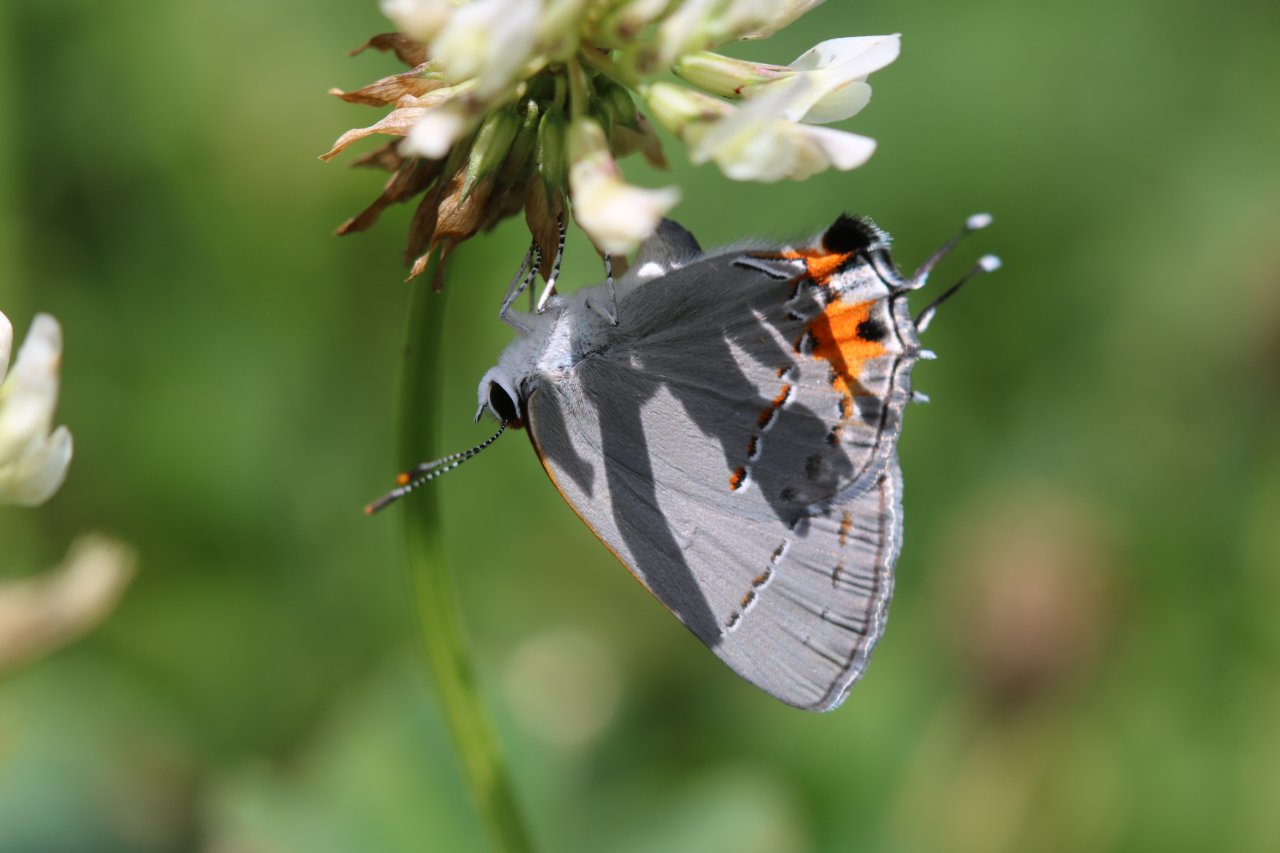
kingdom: Animalia
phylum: Arthropoda
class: Insecta
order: Lepidoptera
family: Lycaenidae
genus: Strymon
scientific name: Strymon melinus
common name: Gray Hairstreak
